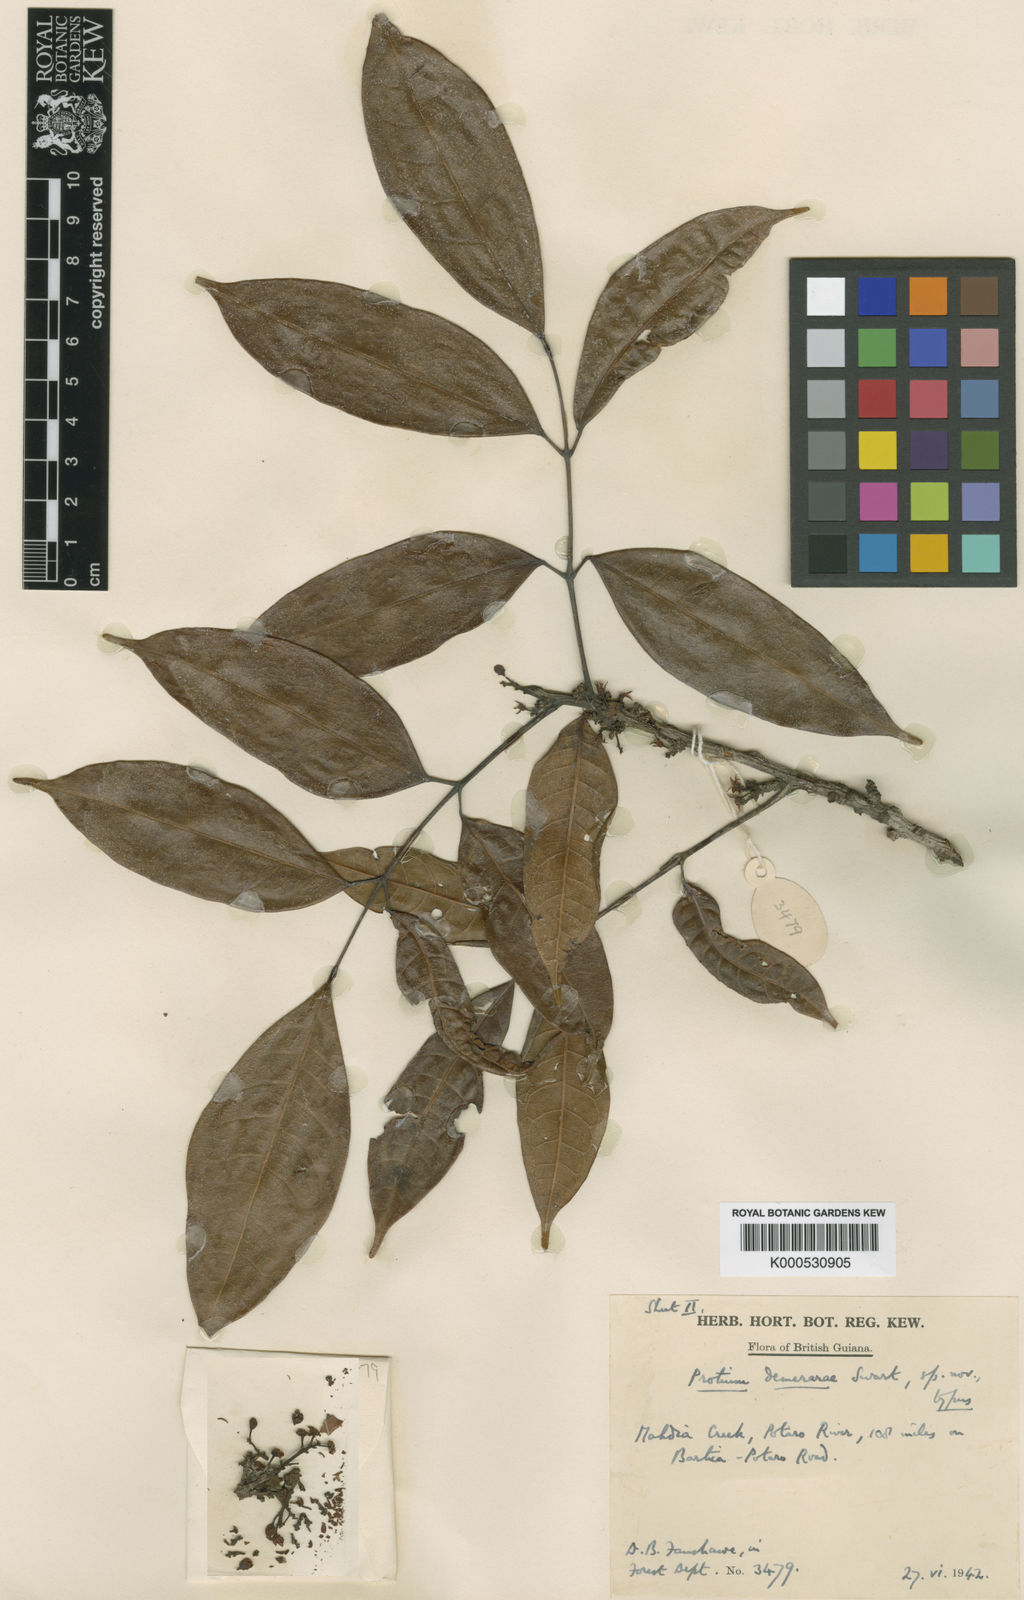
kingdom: Plantae
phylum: Tracheophyta
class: Magnoliopsida
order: Sapindales
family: Burseraceae
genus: Protium
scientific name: Protium
